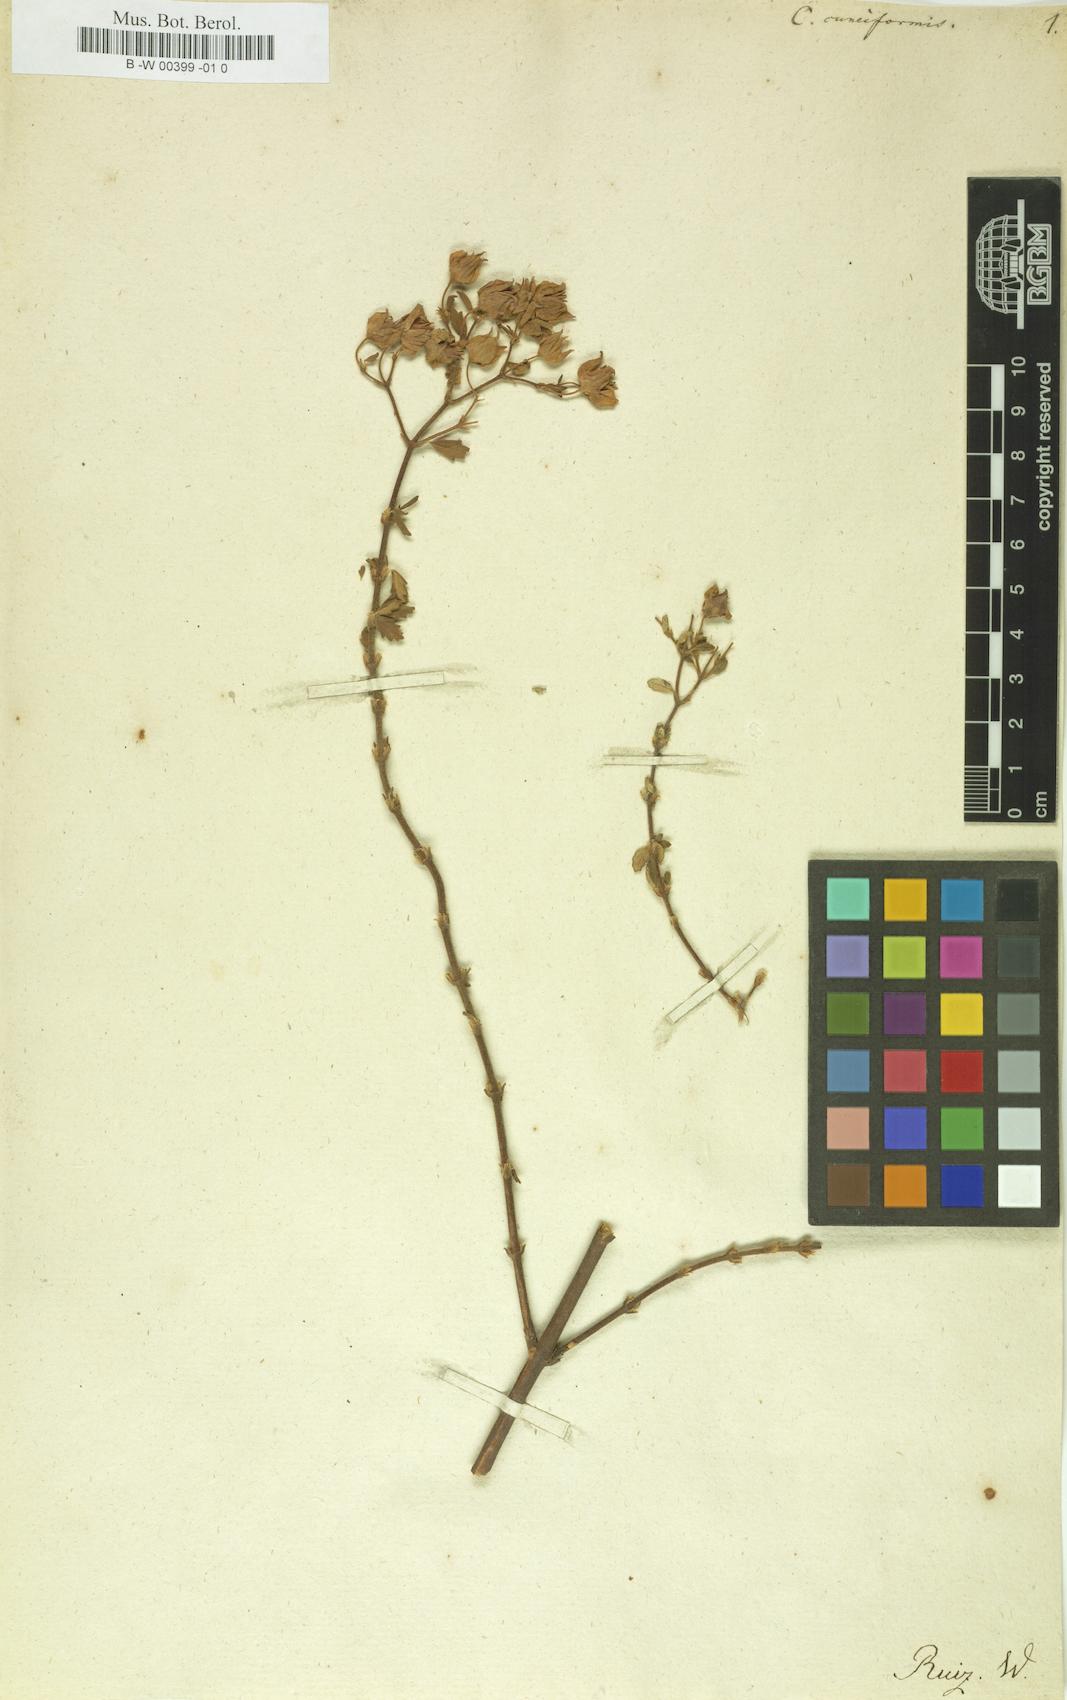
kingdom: Plantae
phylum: Tracheophyta
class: Magnoliopsida
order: Lamiales
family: Calceolariaceae
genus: Calceolaria
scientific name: Calceolaria cuneiformis
